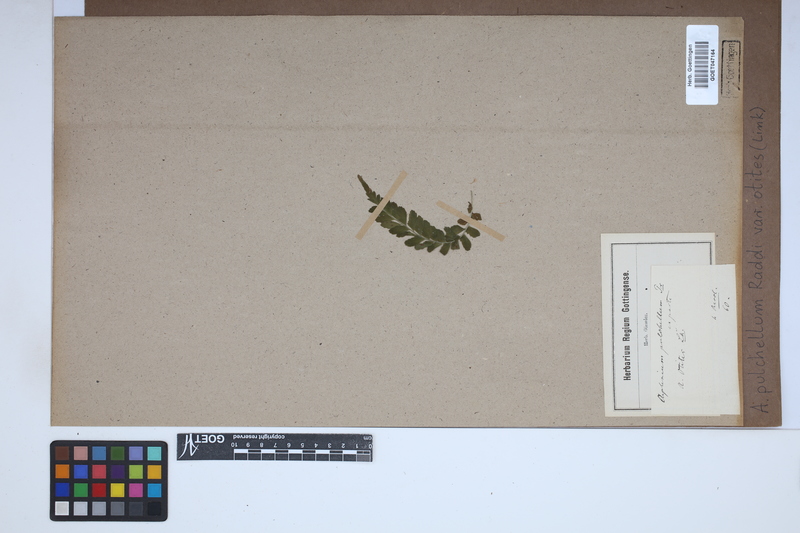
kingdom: Plantae
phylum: Tracheophyta
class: Polypodiopsida
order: Polypodiales
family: Aspleniaceae
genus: Asplenium
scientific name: Asplenium otites
